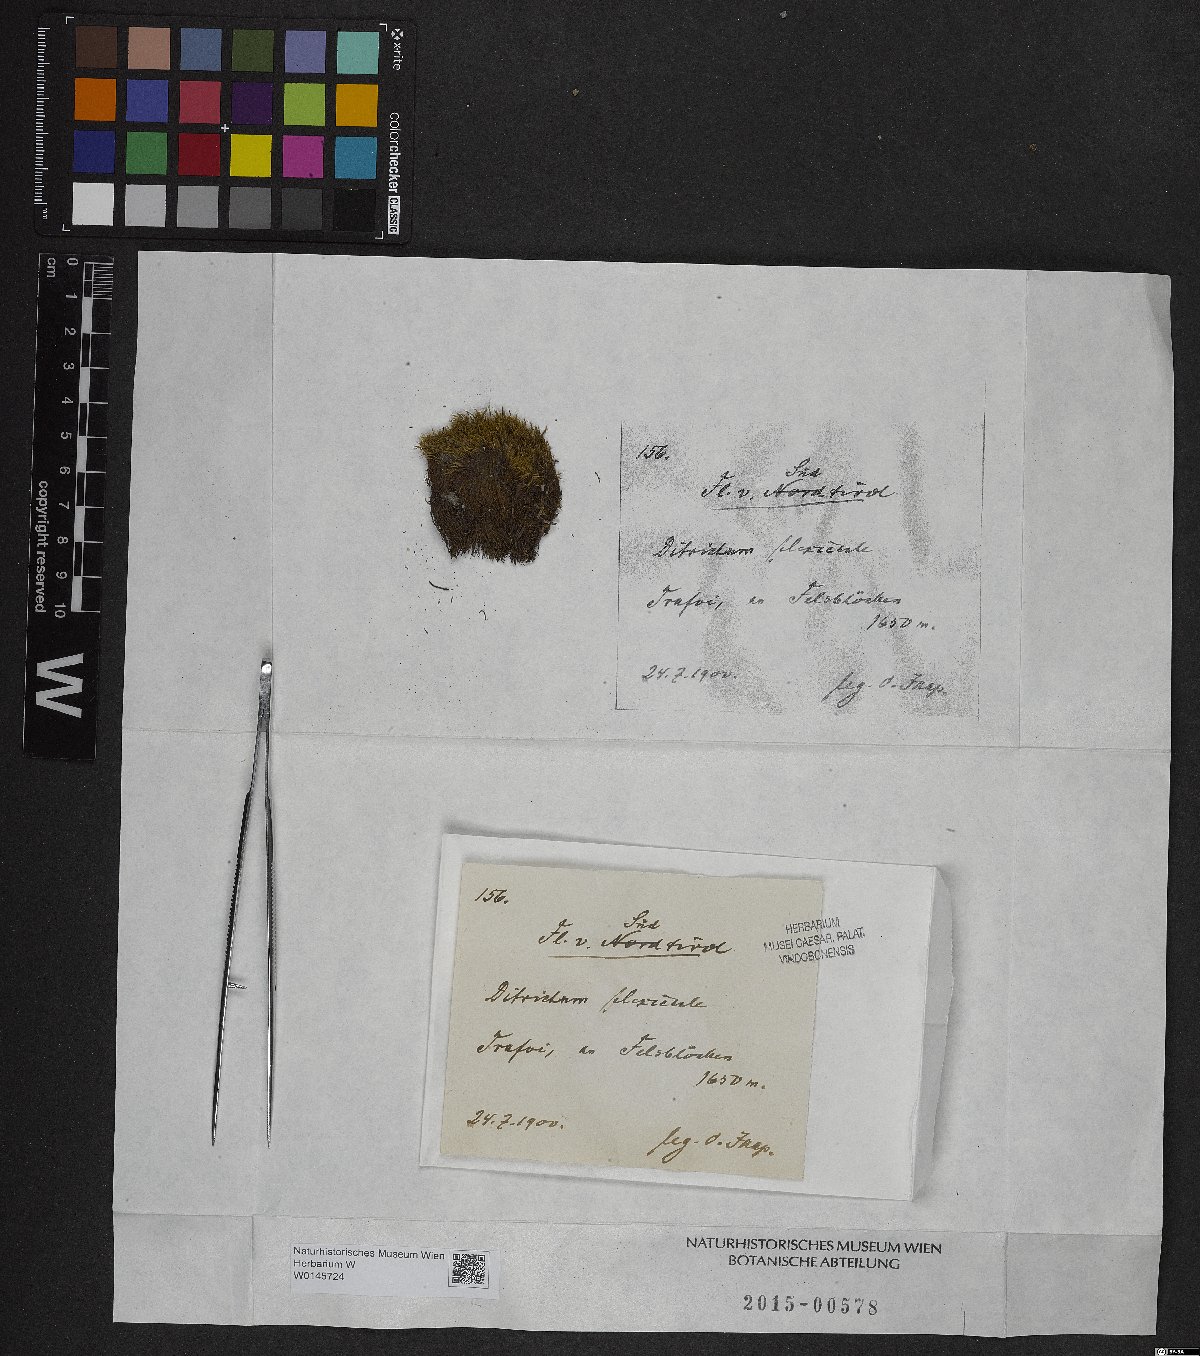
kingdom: Plantae
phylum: Bryophyta
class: Bryopsida
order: Scouleriales
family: Flexitrichaceae
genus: Flexitrichum
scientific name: Flexitrichum flexicaule
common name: Bendy ditrichum
